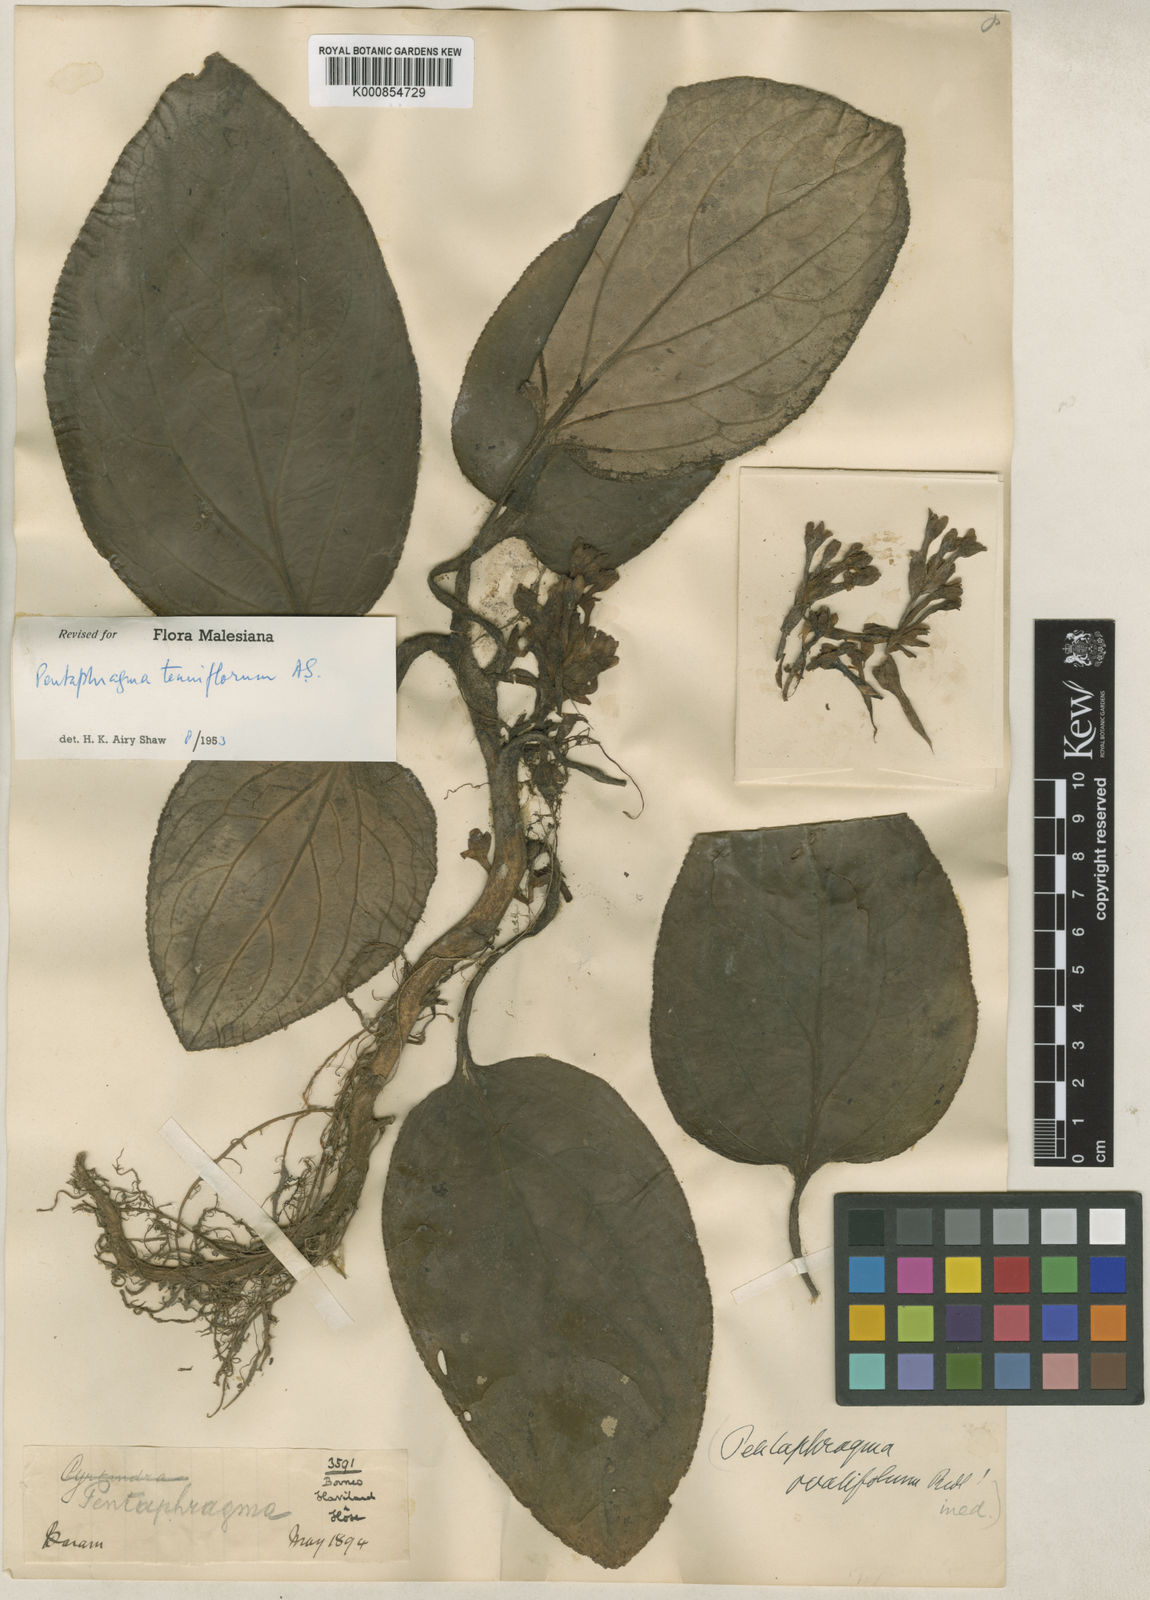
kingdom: Plantae
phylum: Tracheophyta
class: Magnoliopsida
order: Asterales
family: Pentaphragmataceae
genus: Pentaphragma
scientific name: Pentaphragma tenuiflorum
